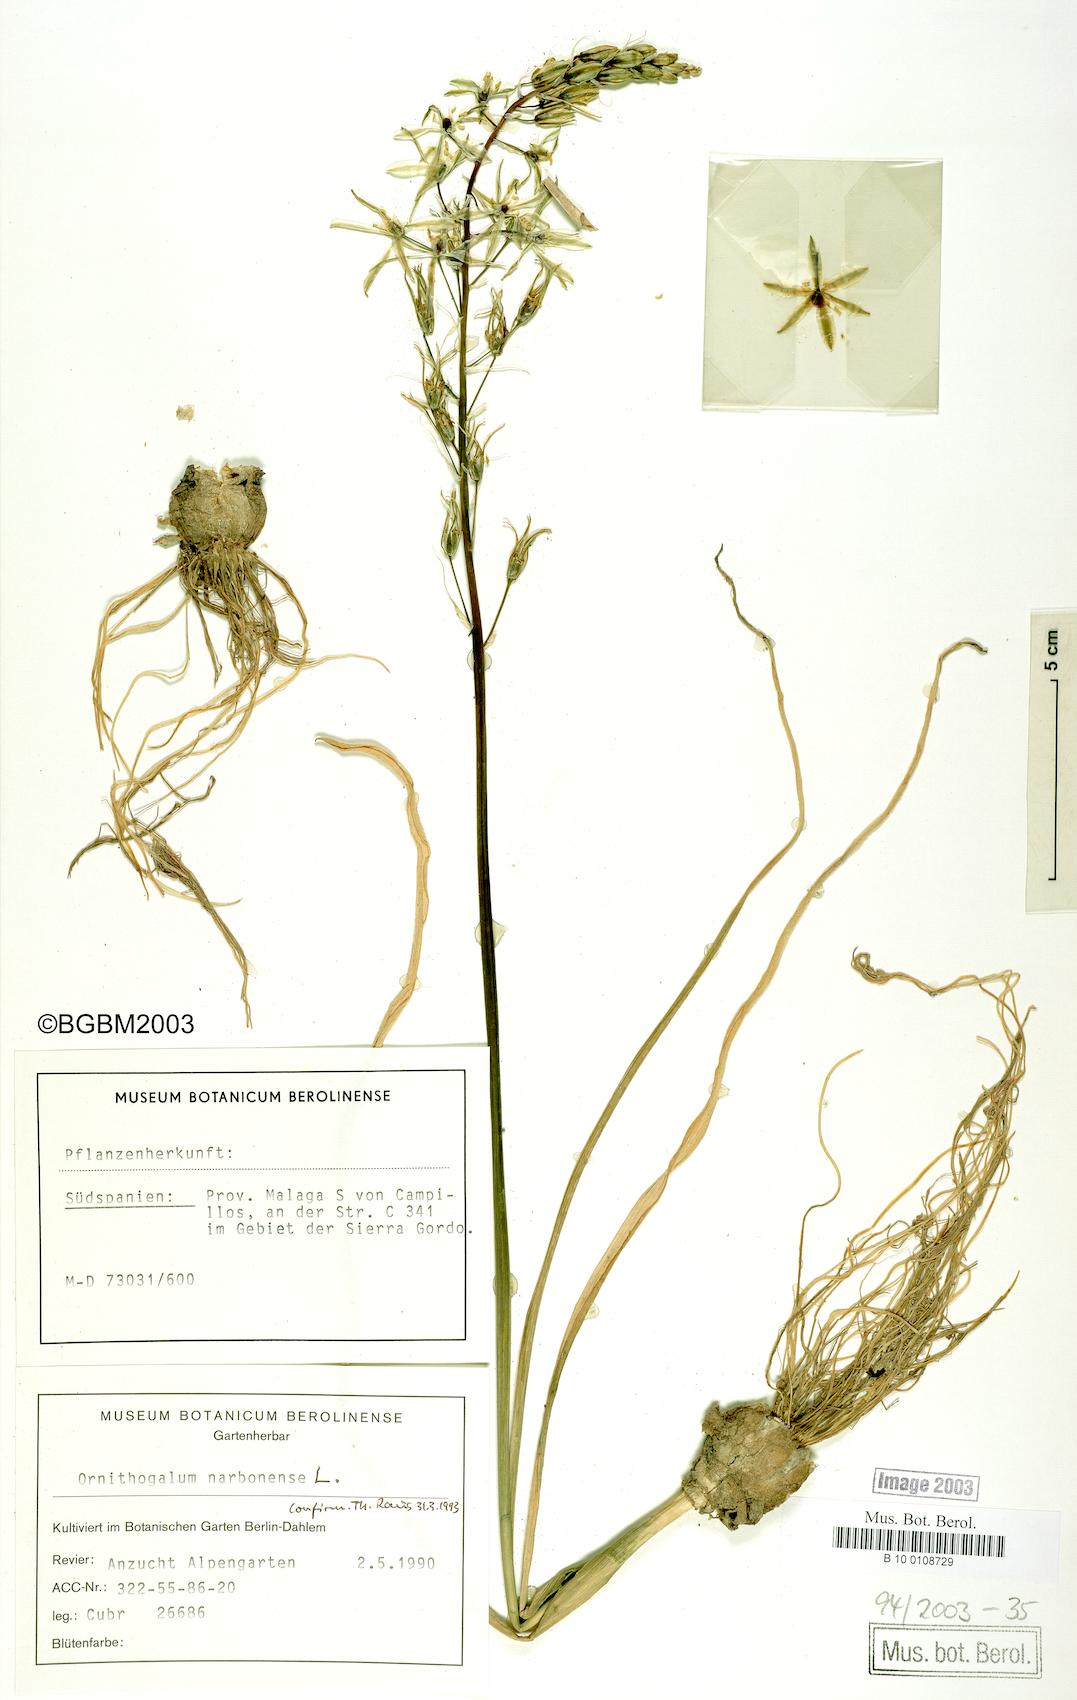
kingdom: Plantae
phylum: Tracheophyta
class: Liliopsida
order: Asparagales
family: Asparagaceae
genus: Ornithogalum
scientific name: Ornithogalum ponticum
